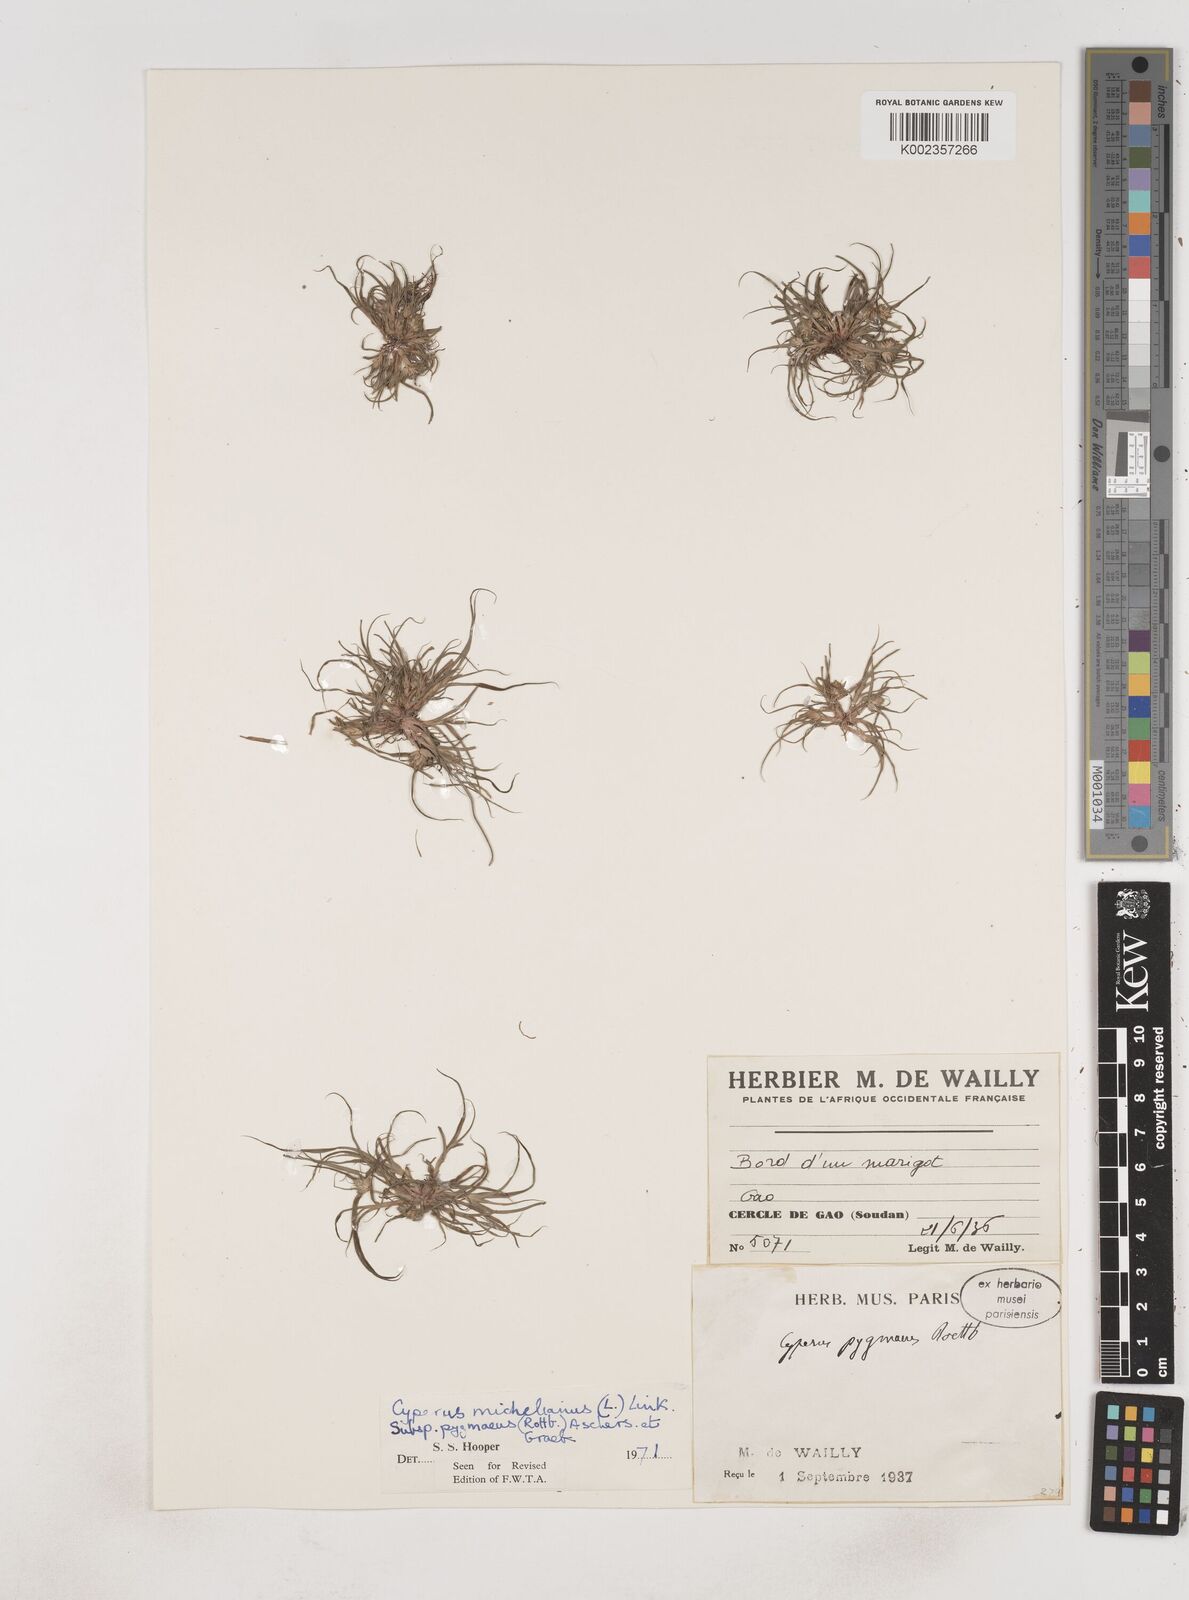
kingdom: Plantae
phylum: Tracheophyta
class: Liliopsida
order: Poales
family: Cyperaceae
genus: Cyperus
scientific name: Cyperus michelianus
